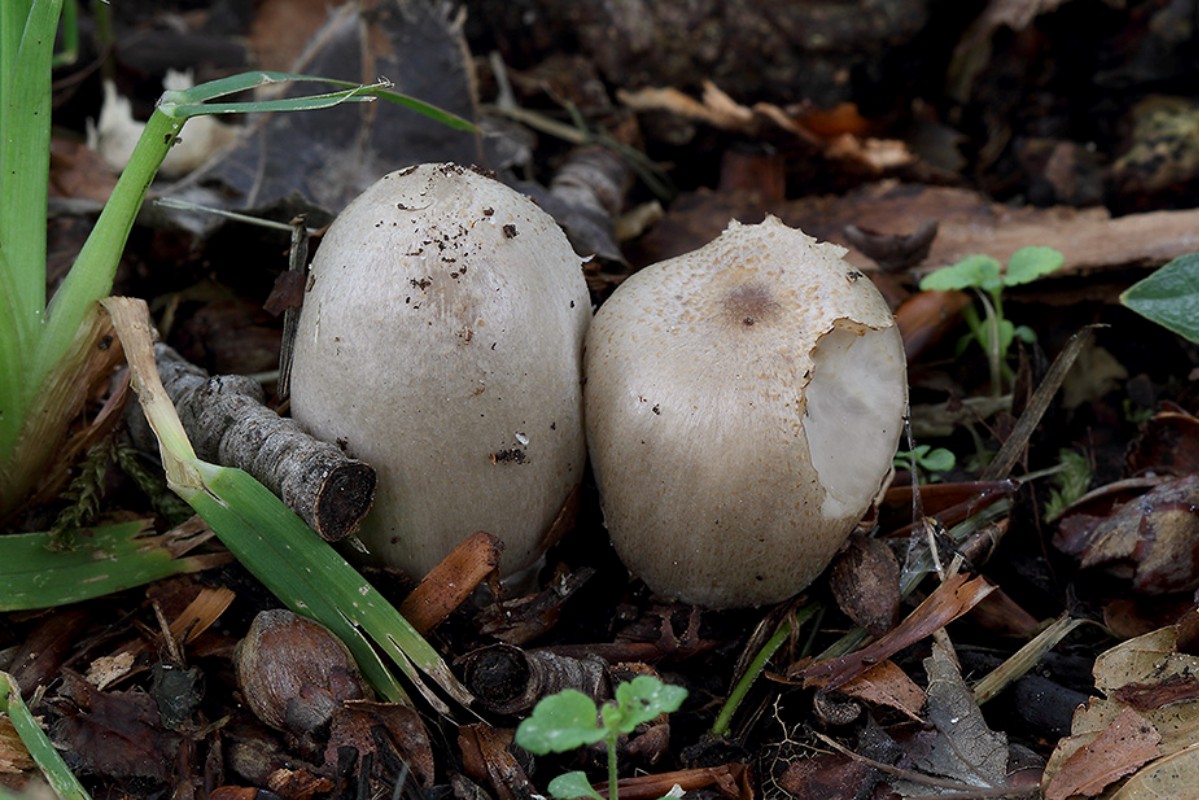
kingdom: Fungi
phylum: Basidiomycota
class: Agaricomycetes
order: Agaricales
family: Psathyrellaceae
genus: Coprinopsis
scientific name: Coprinopsis romagnesiana
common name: brunskællet blækhat
